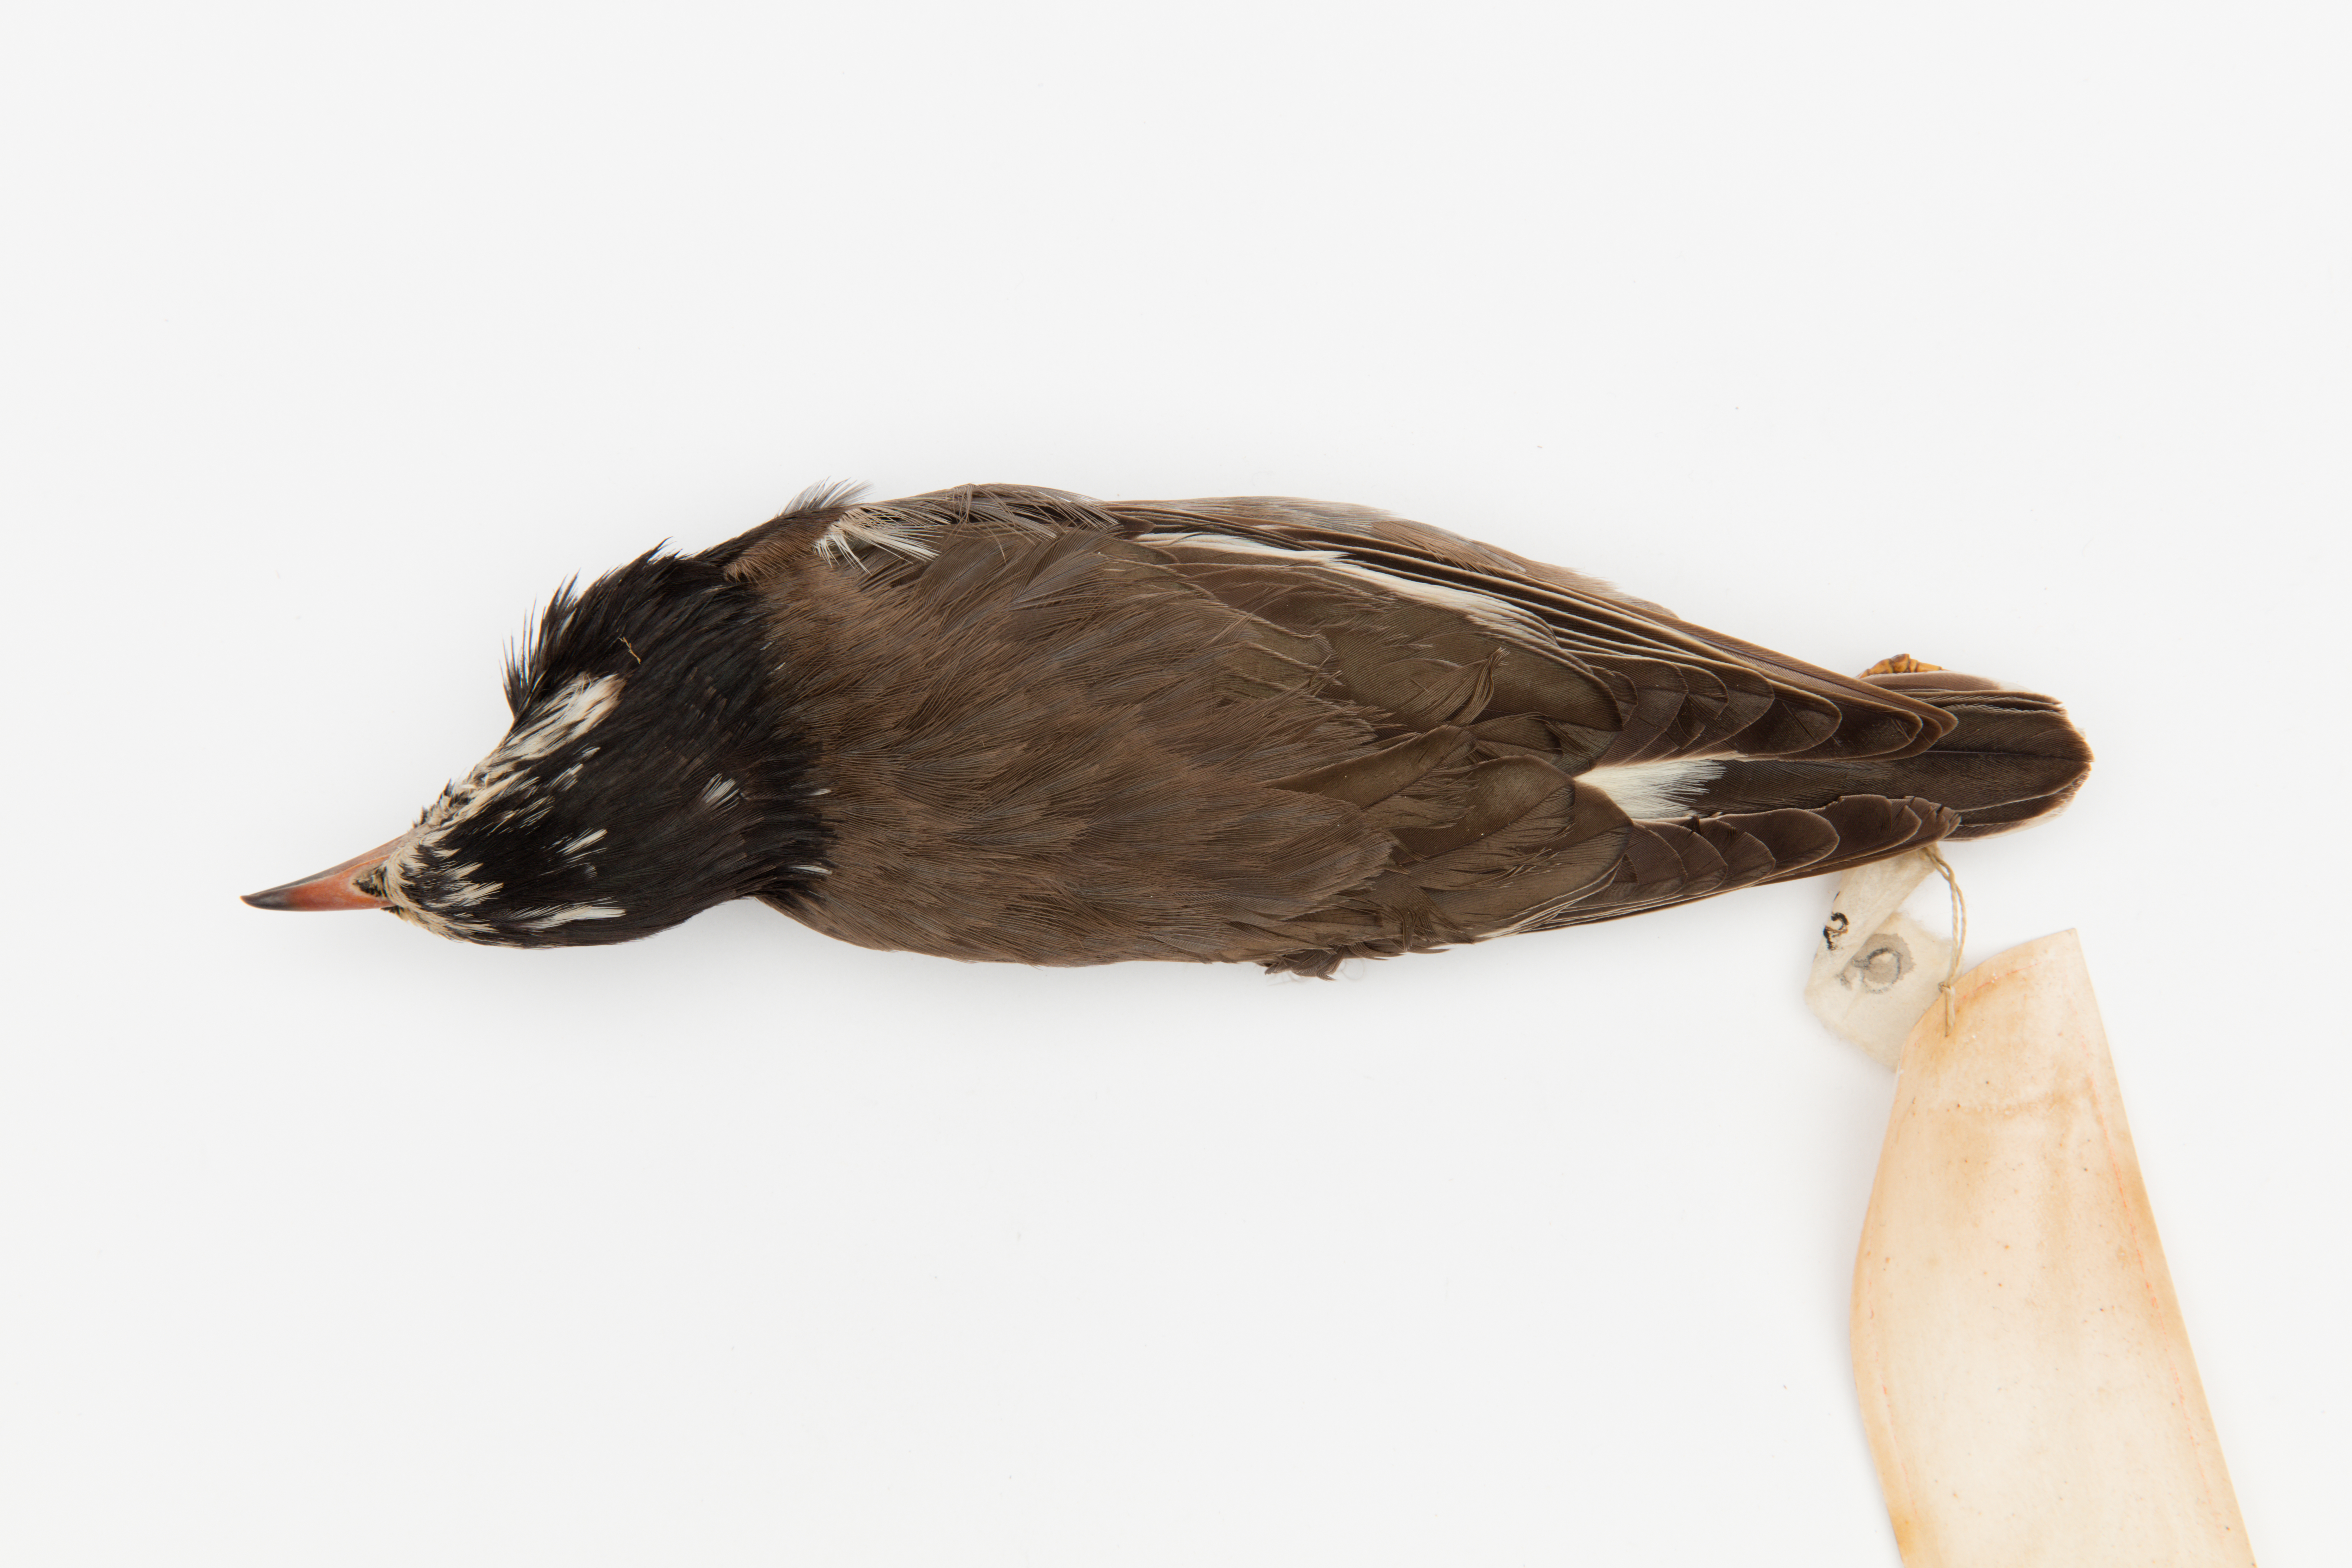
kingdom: Animalia
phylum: Chordata
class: Aves
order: Passeriformes
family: Sturnidae
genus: Spodiopsar
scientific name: Spodiopsar cineraceus
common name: White-cheeked starling
